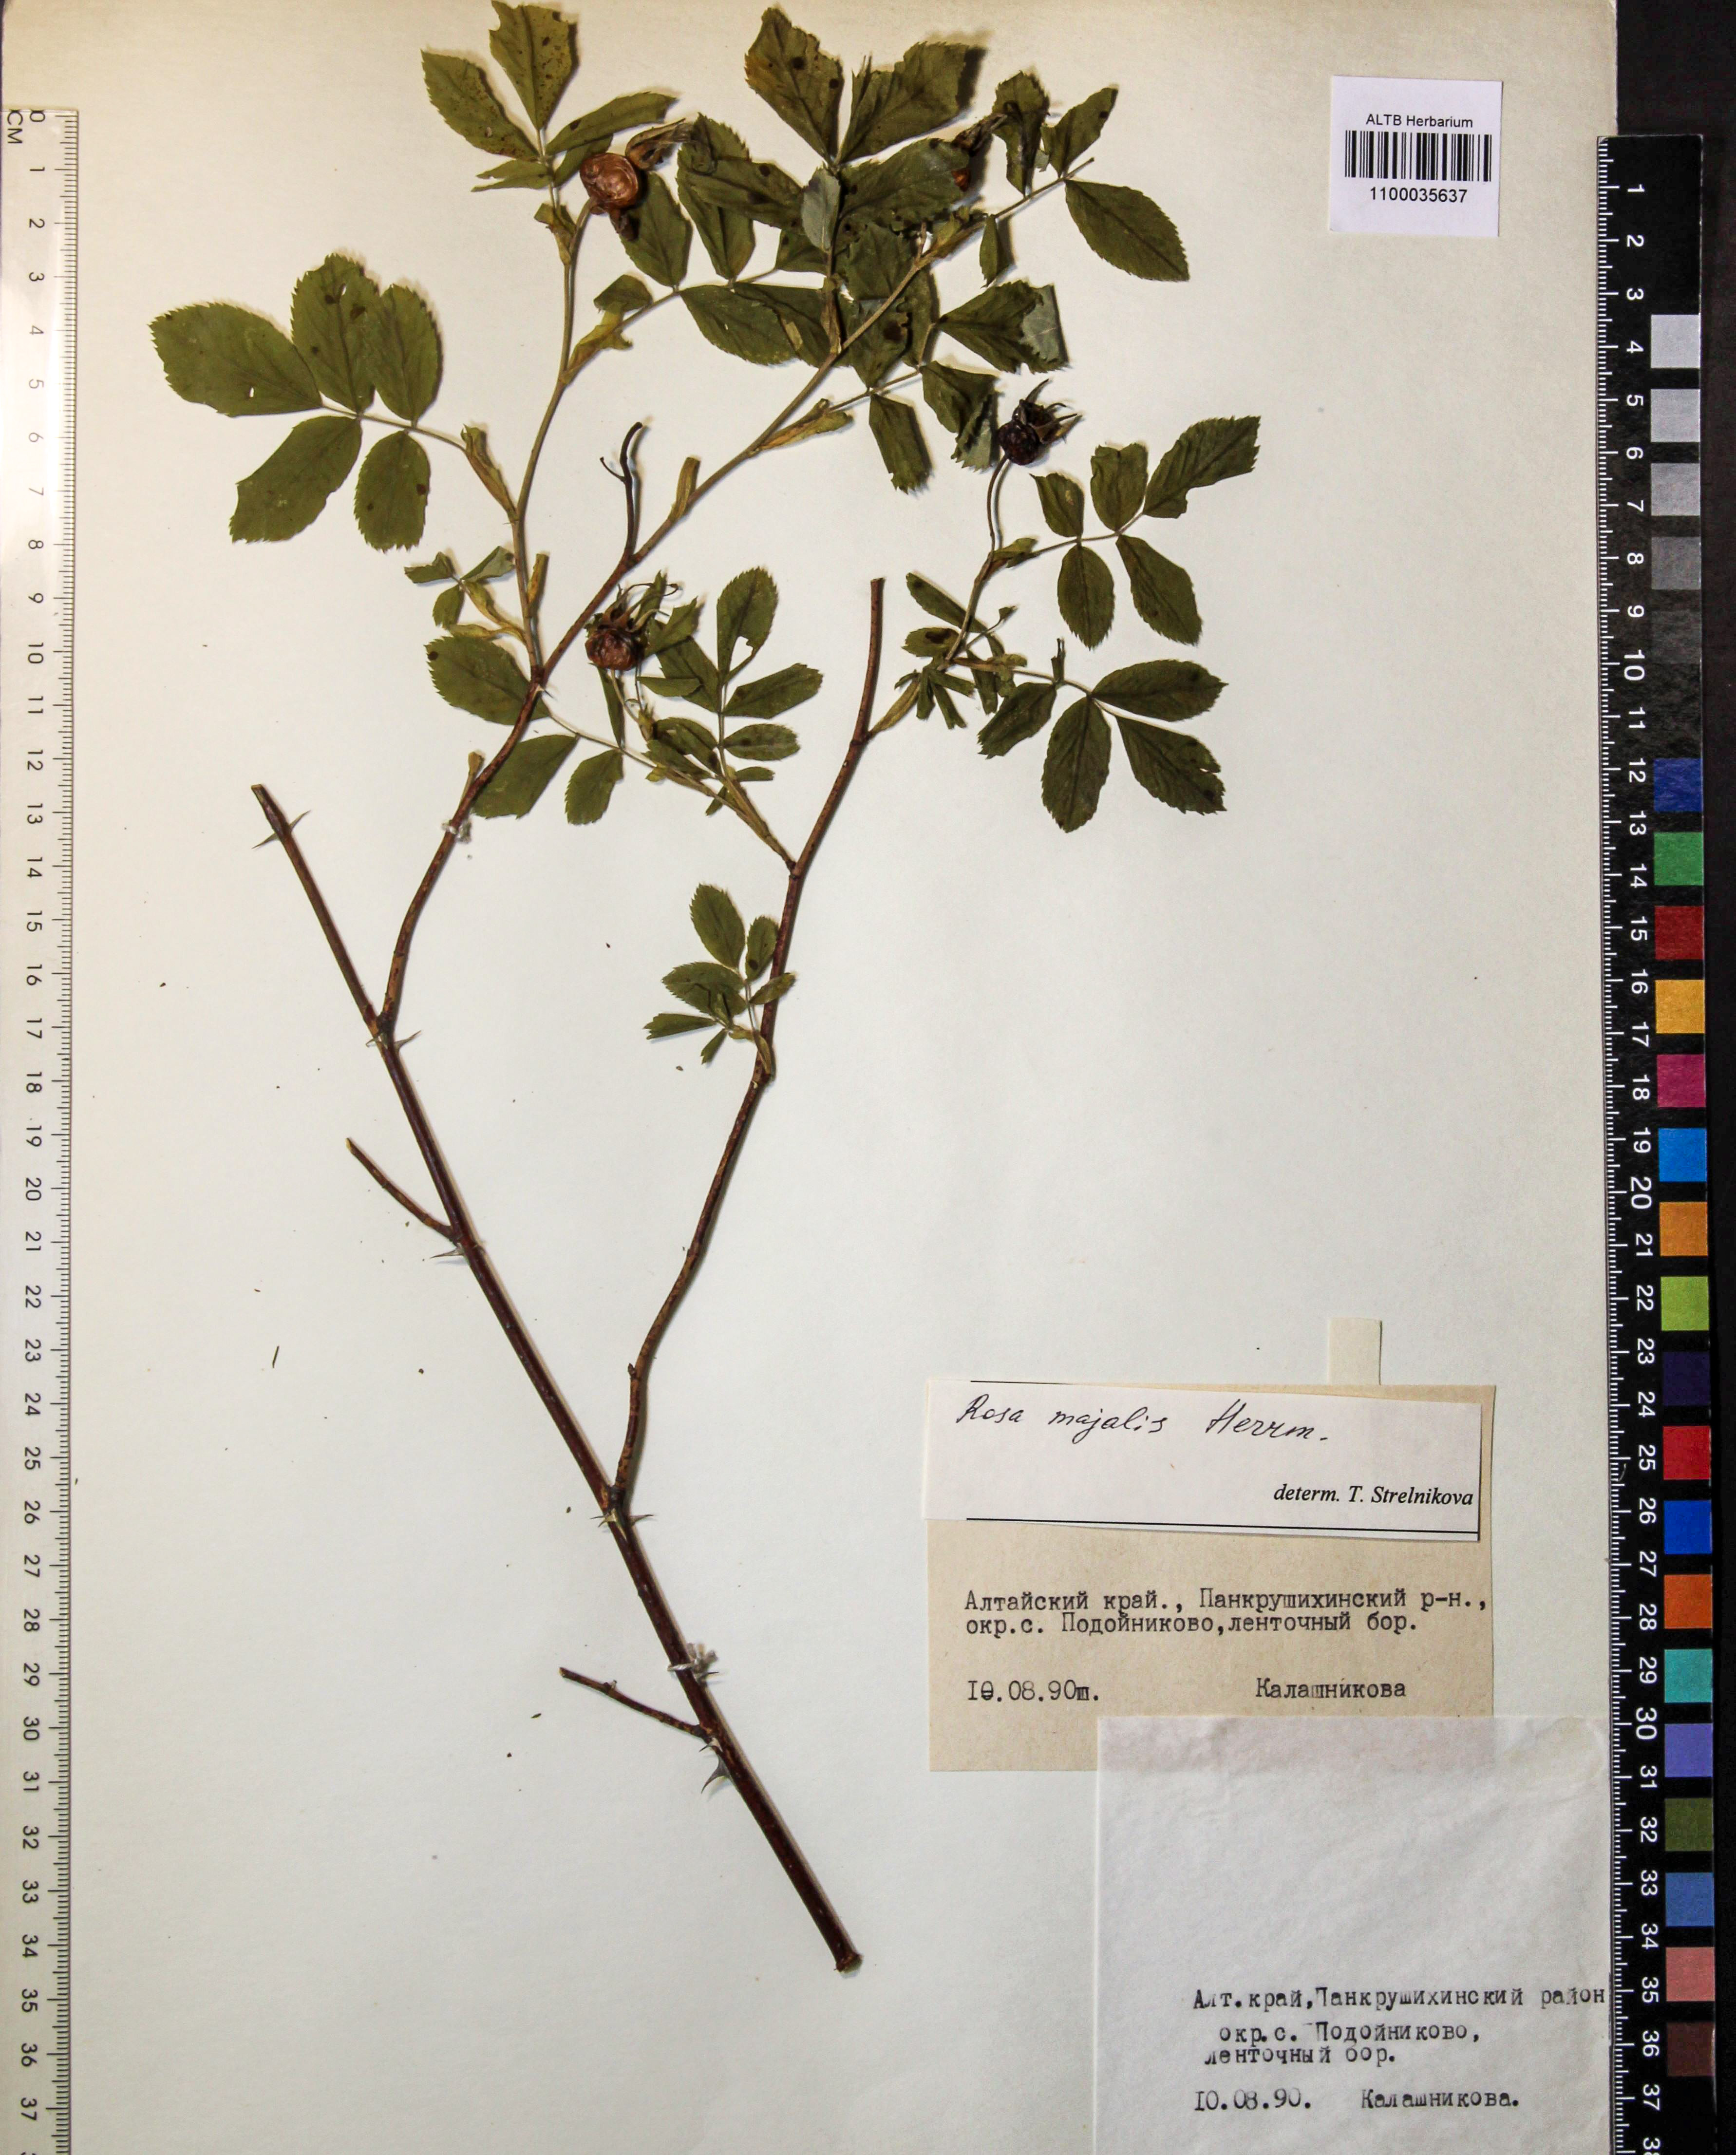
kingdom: Plantae
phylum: Tracheophyta
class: Magnoliopsida
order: Rosales
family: Rosaceae
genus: Rosa
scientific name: Rosa majalis
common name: Cinnamon rose
